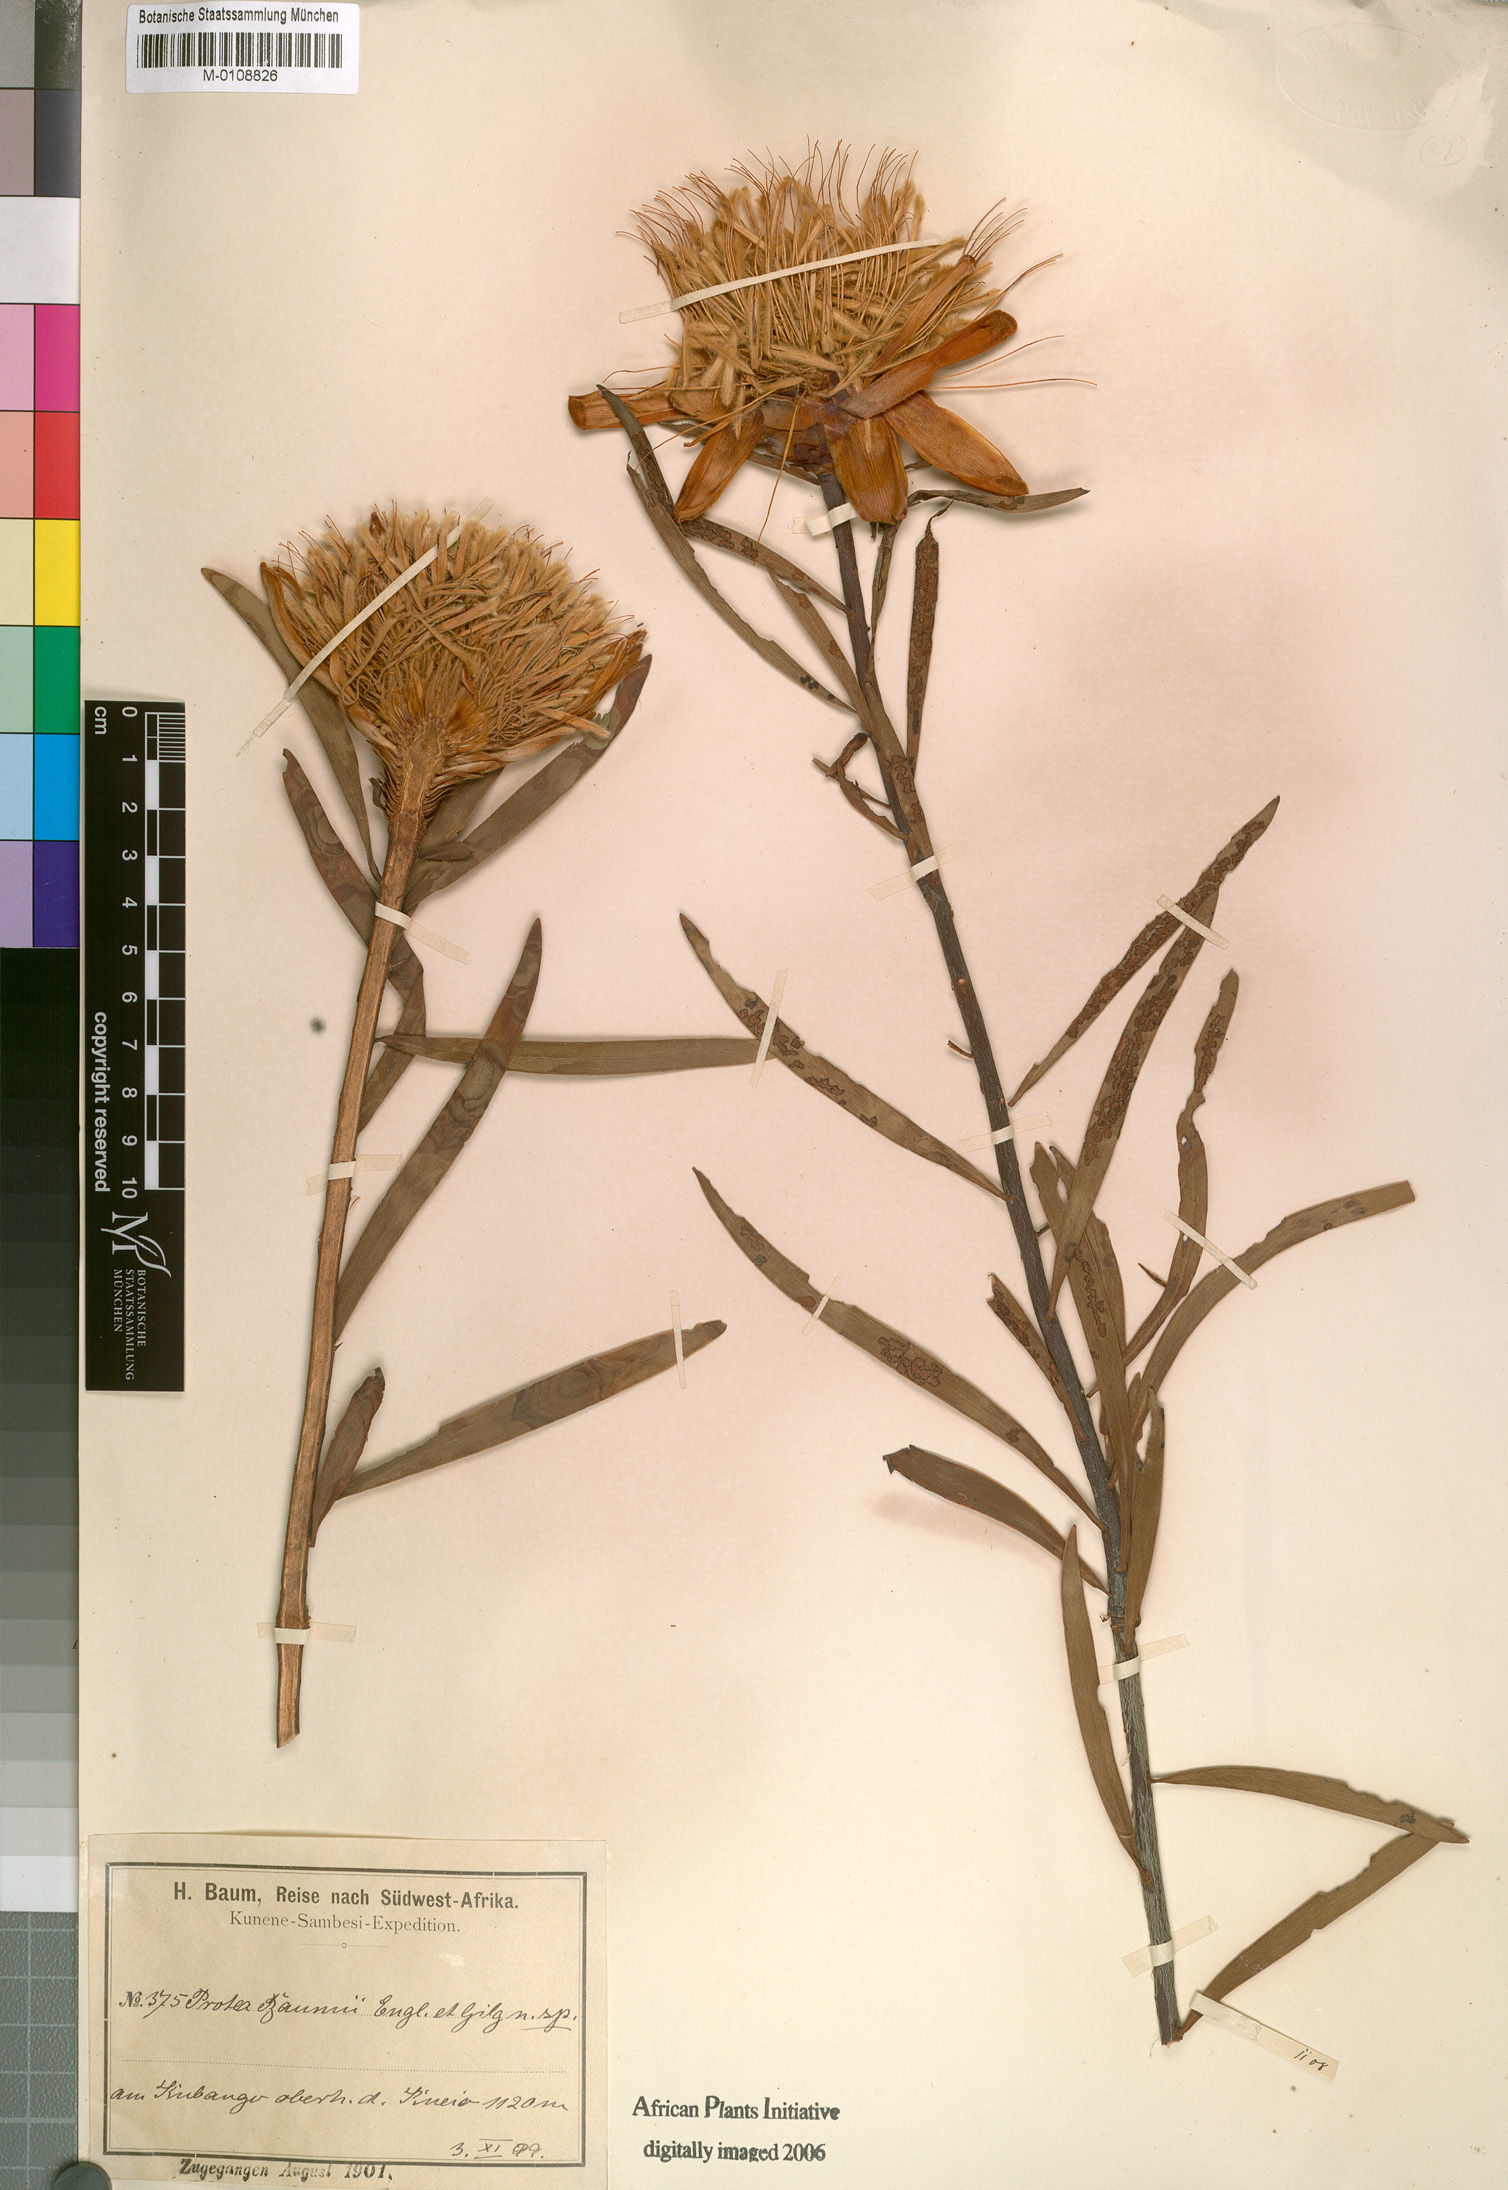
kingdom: Plantae
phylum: Tracheophyta
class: Magnoliopsida
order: Proteales
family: Proteaceae
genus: Protea
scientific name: Protea baumii
